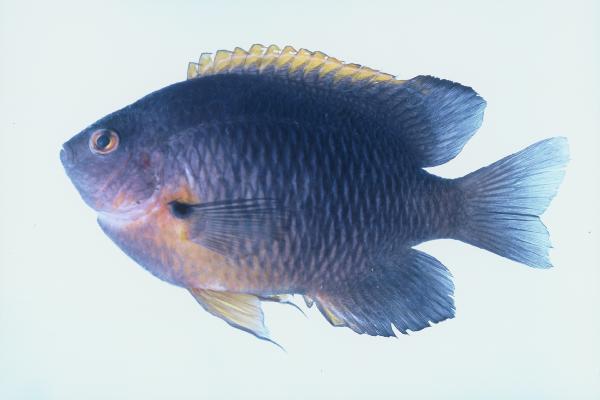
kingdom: Animalia
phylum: Chordata
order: Perciformes
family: Pomacentridae
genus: Pomacentrus
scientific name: Pomacentrus rodriguesensis
